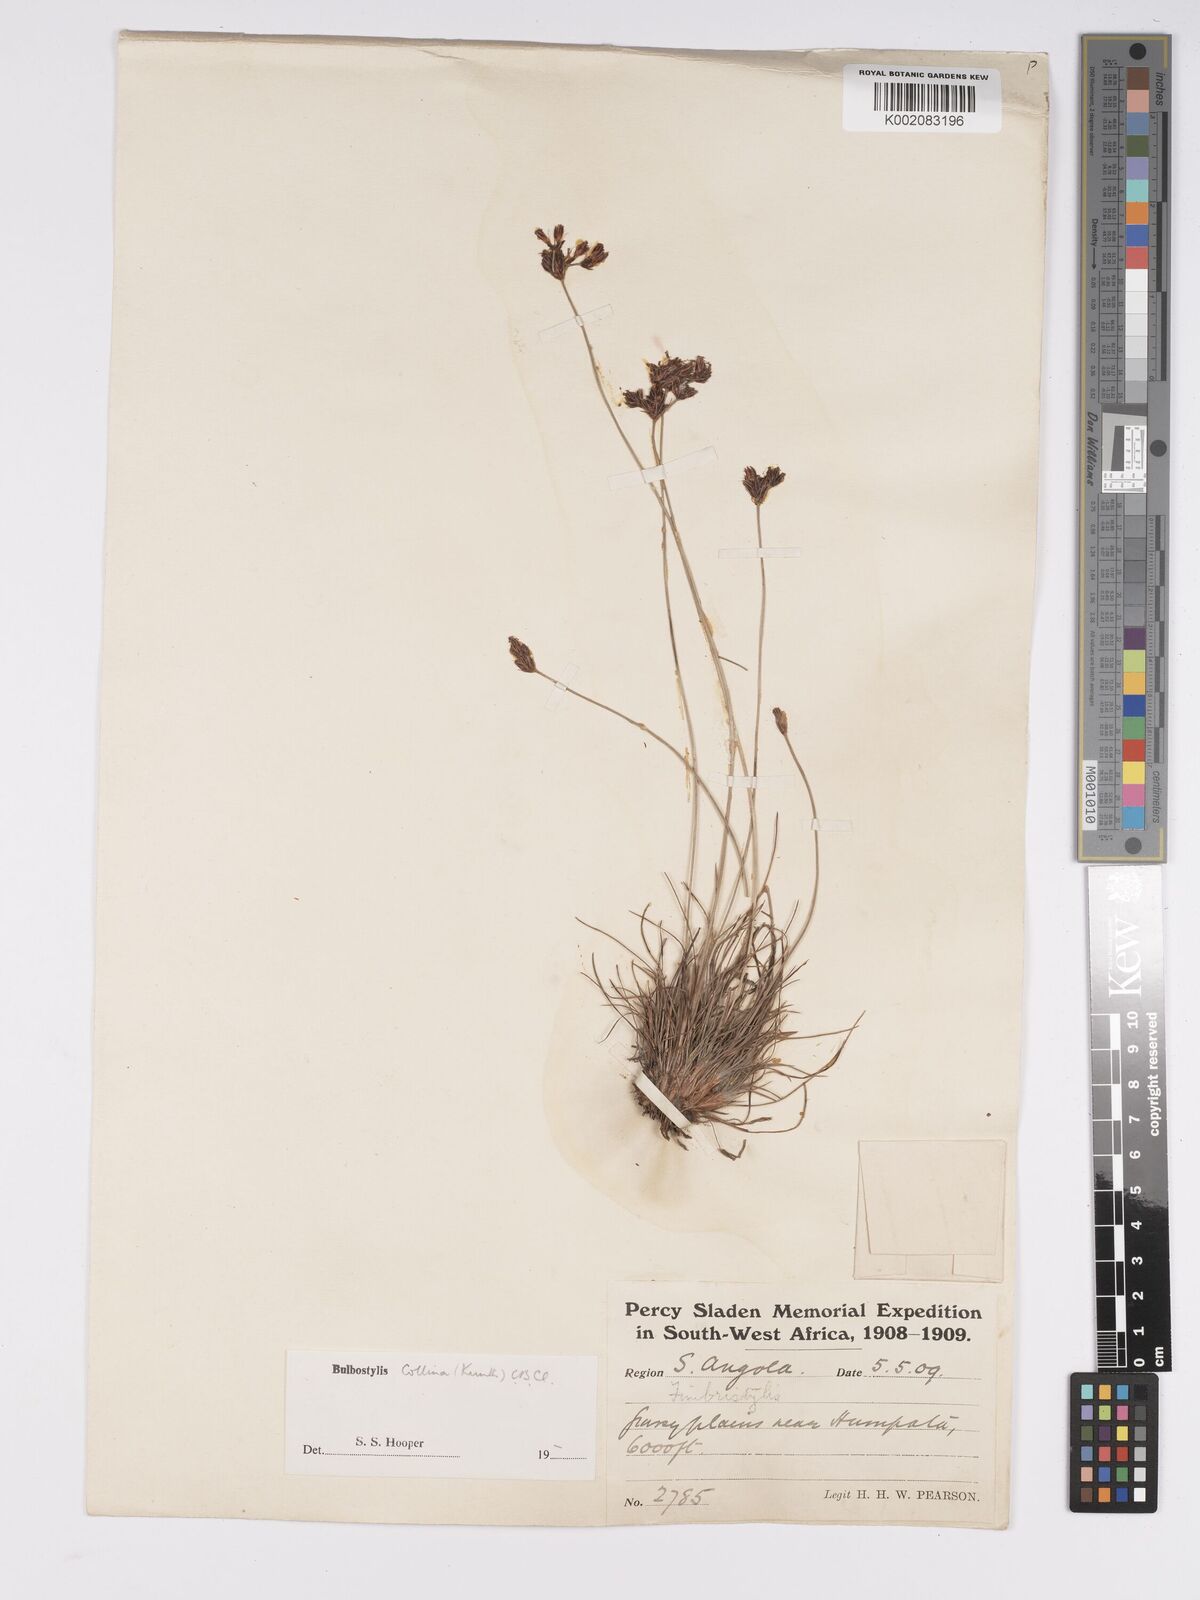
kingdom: Plantae
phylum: Tracheophyta
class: Liliopsida
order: Poales
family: Cyperaceae
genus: Bulbostylis
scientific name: Bulbostylis contexta
